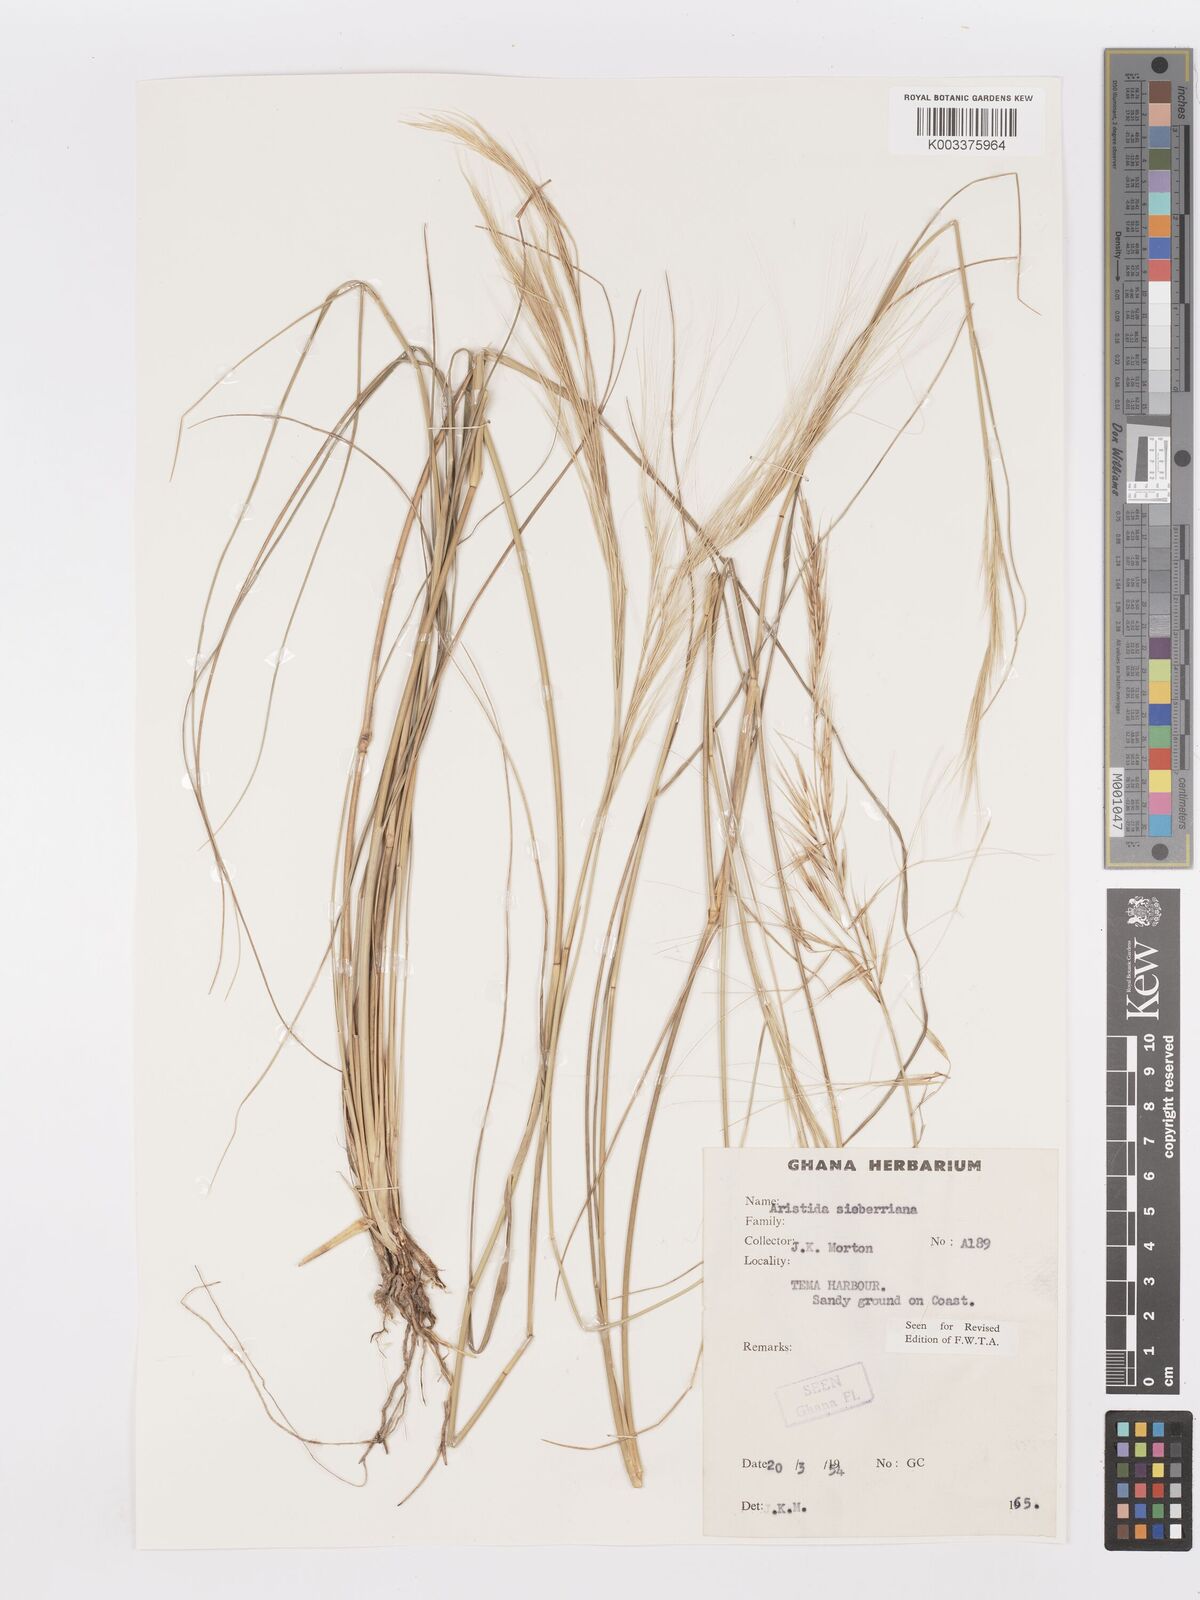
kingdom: Plantae
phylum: Tracheophyta
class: Liliopsida
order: Poales
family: Poaceae
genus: Aristida
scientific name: Aristida sieberiana
